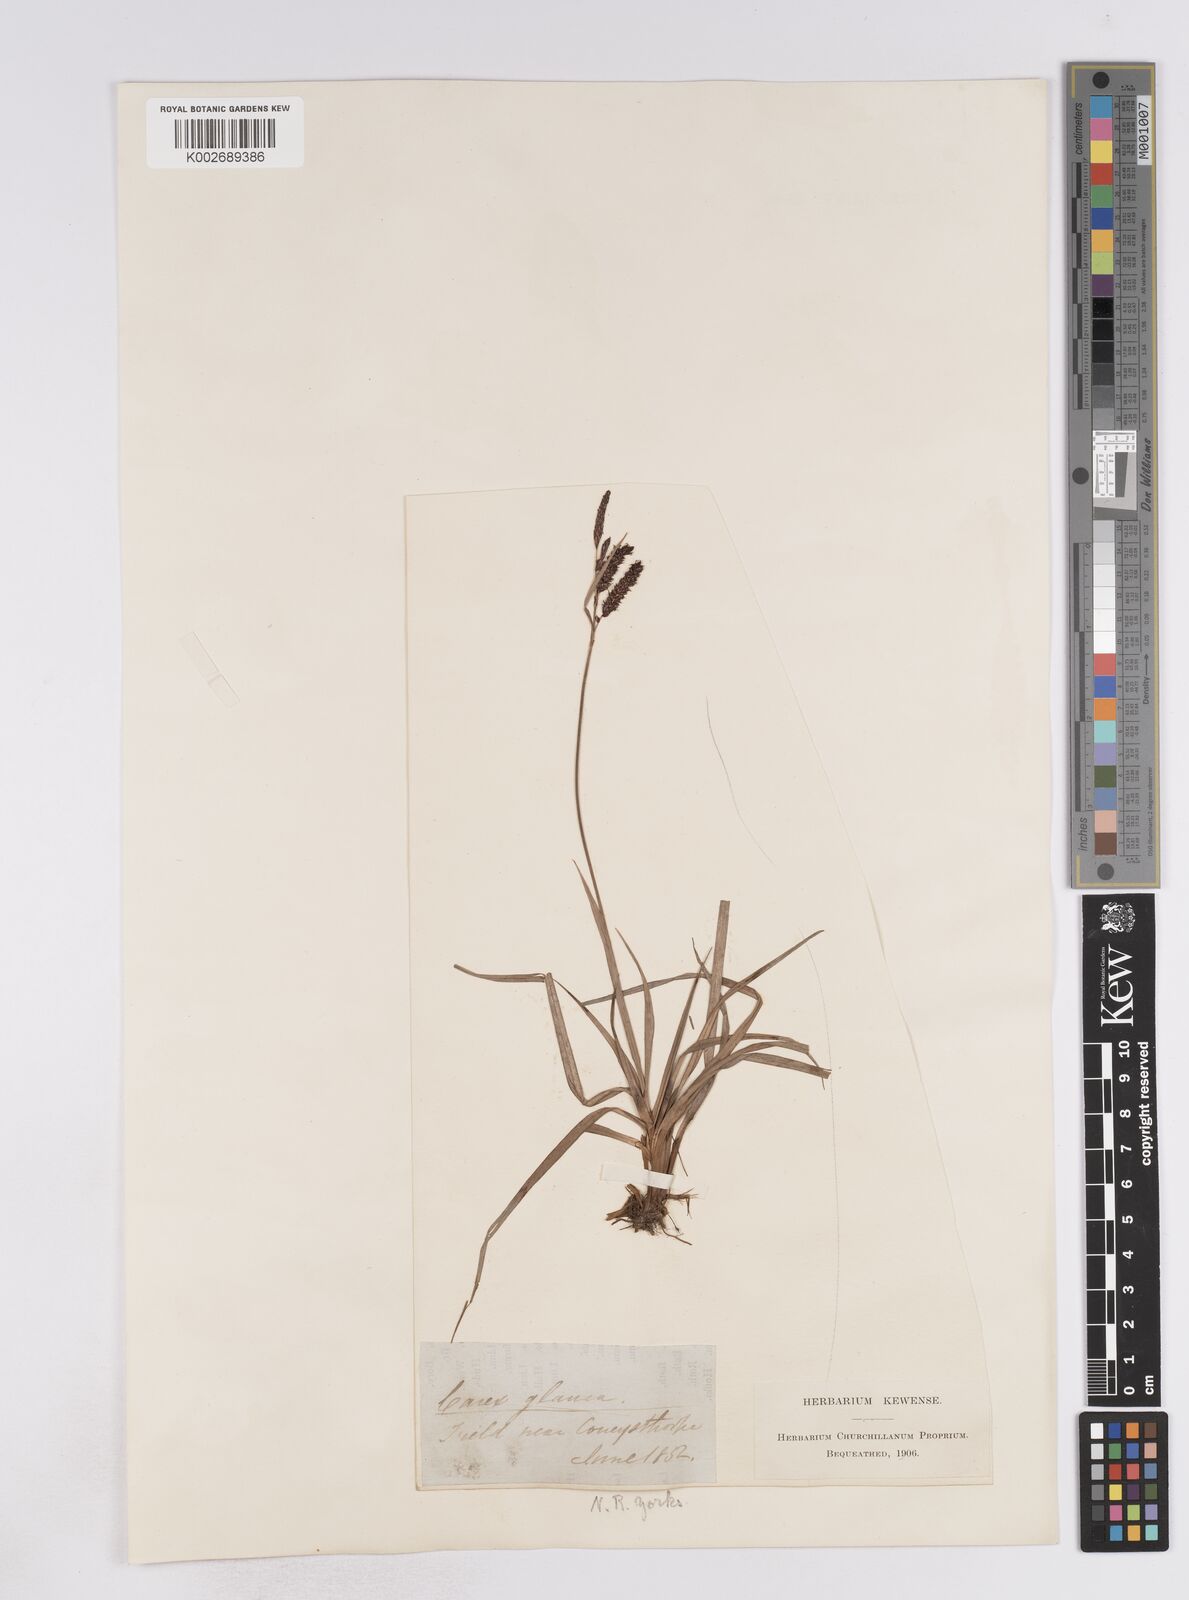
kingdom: Plantae
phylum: Tracheophyta
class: Liliopsida
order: Poales
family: Cyperaceae
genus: Carex
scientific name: Carex flacca
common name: Glaucous sedge
